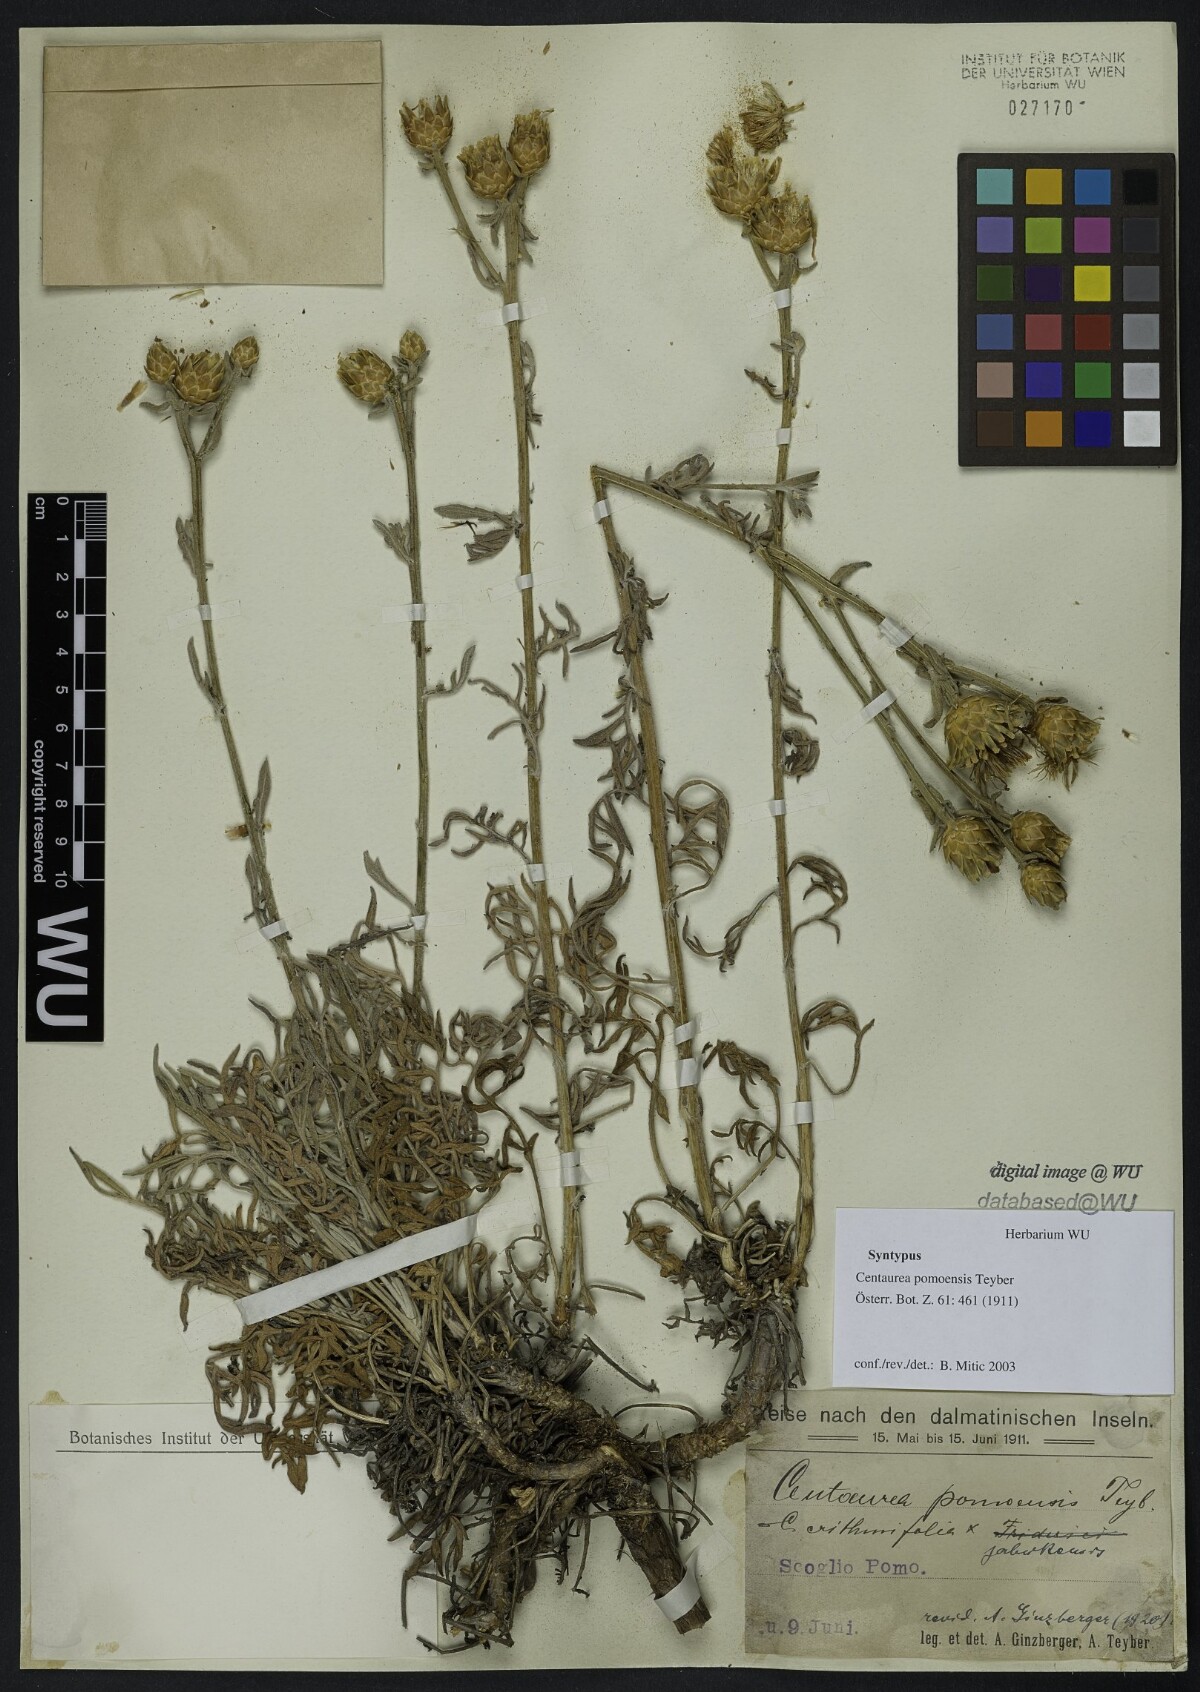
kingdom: Plantae
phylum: Tracheophyta
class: Magnoliopsida
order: Asterales
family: Asteraceae
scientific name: Asteraceae
